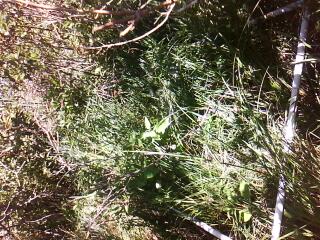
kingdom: Plantae
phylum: Tracheophyta
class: Magnoliopsida
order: Cornales
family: Cornaceae
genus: Cornus
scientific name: Cornus sericea
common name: Red-osier dogwood
